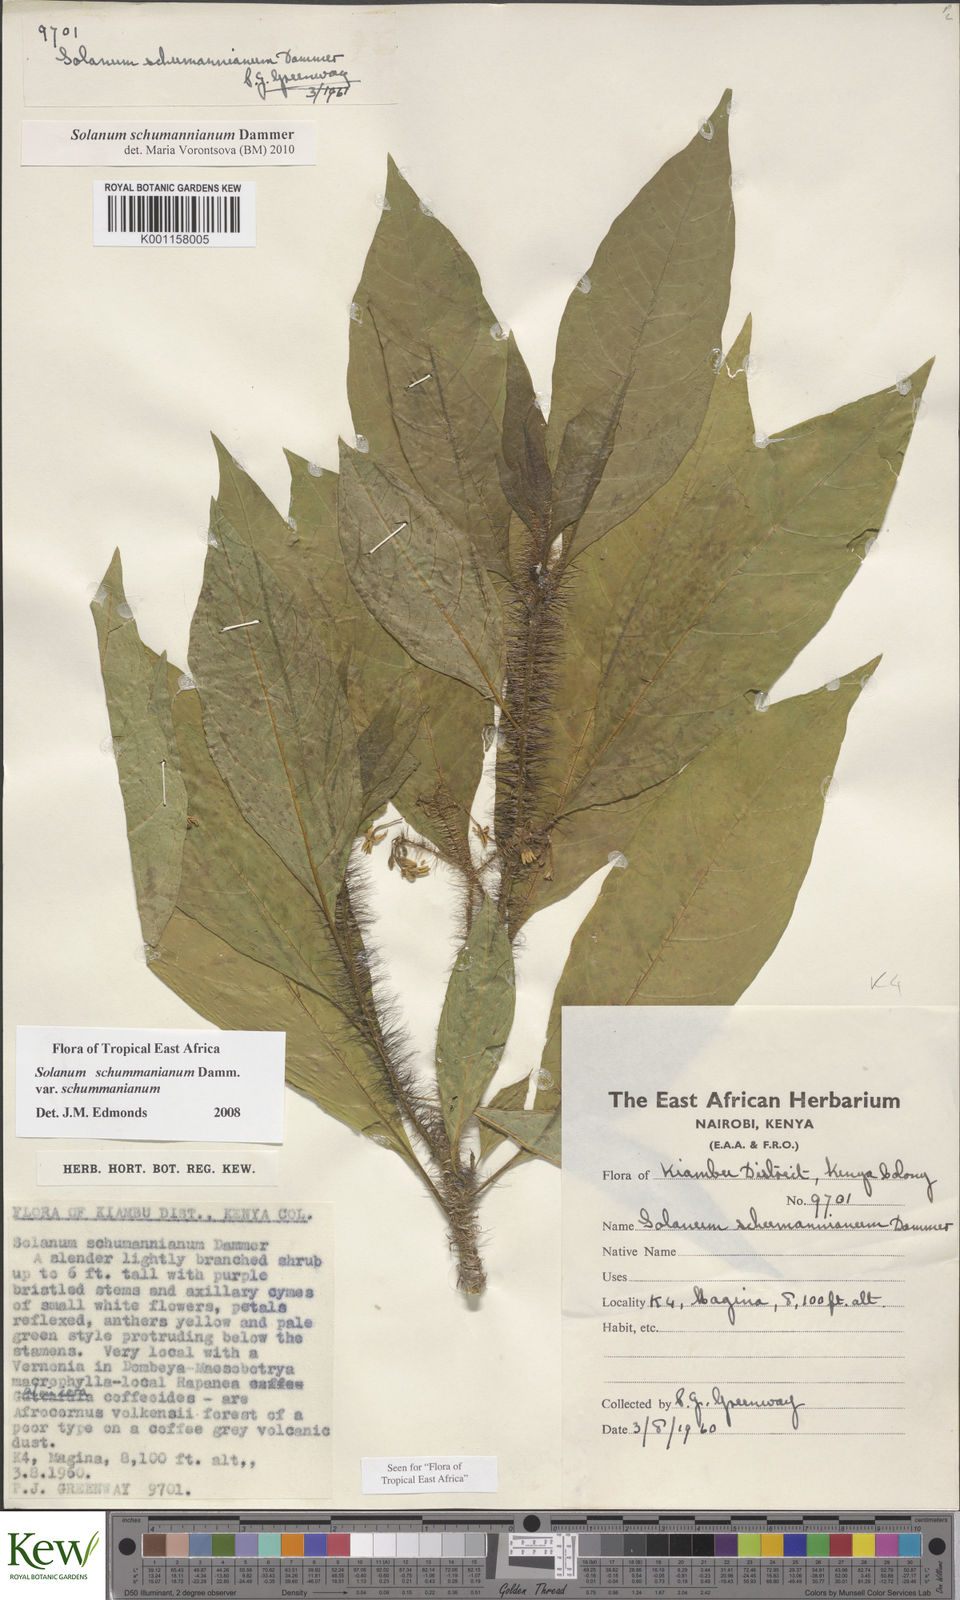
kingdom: Plantae
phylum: Tracheophyta
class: Magnoliopsida
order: Solanales
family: Solanaceae
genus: Solanum
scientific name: Solanum schumannianum
